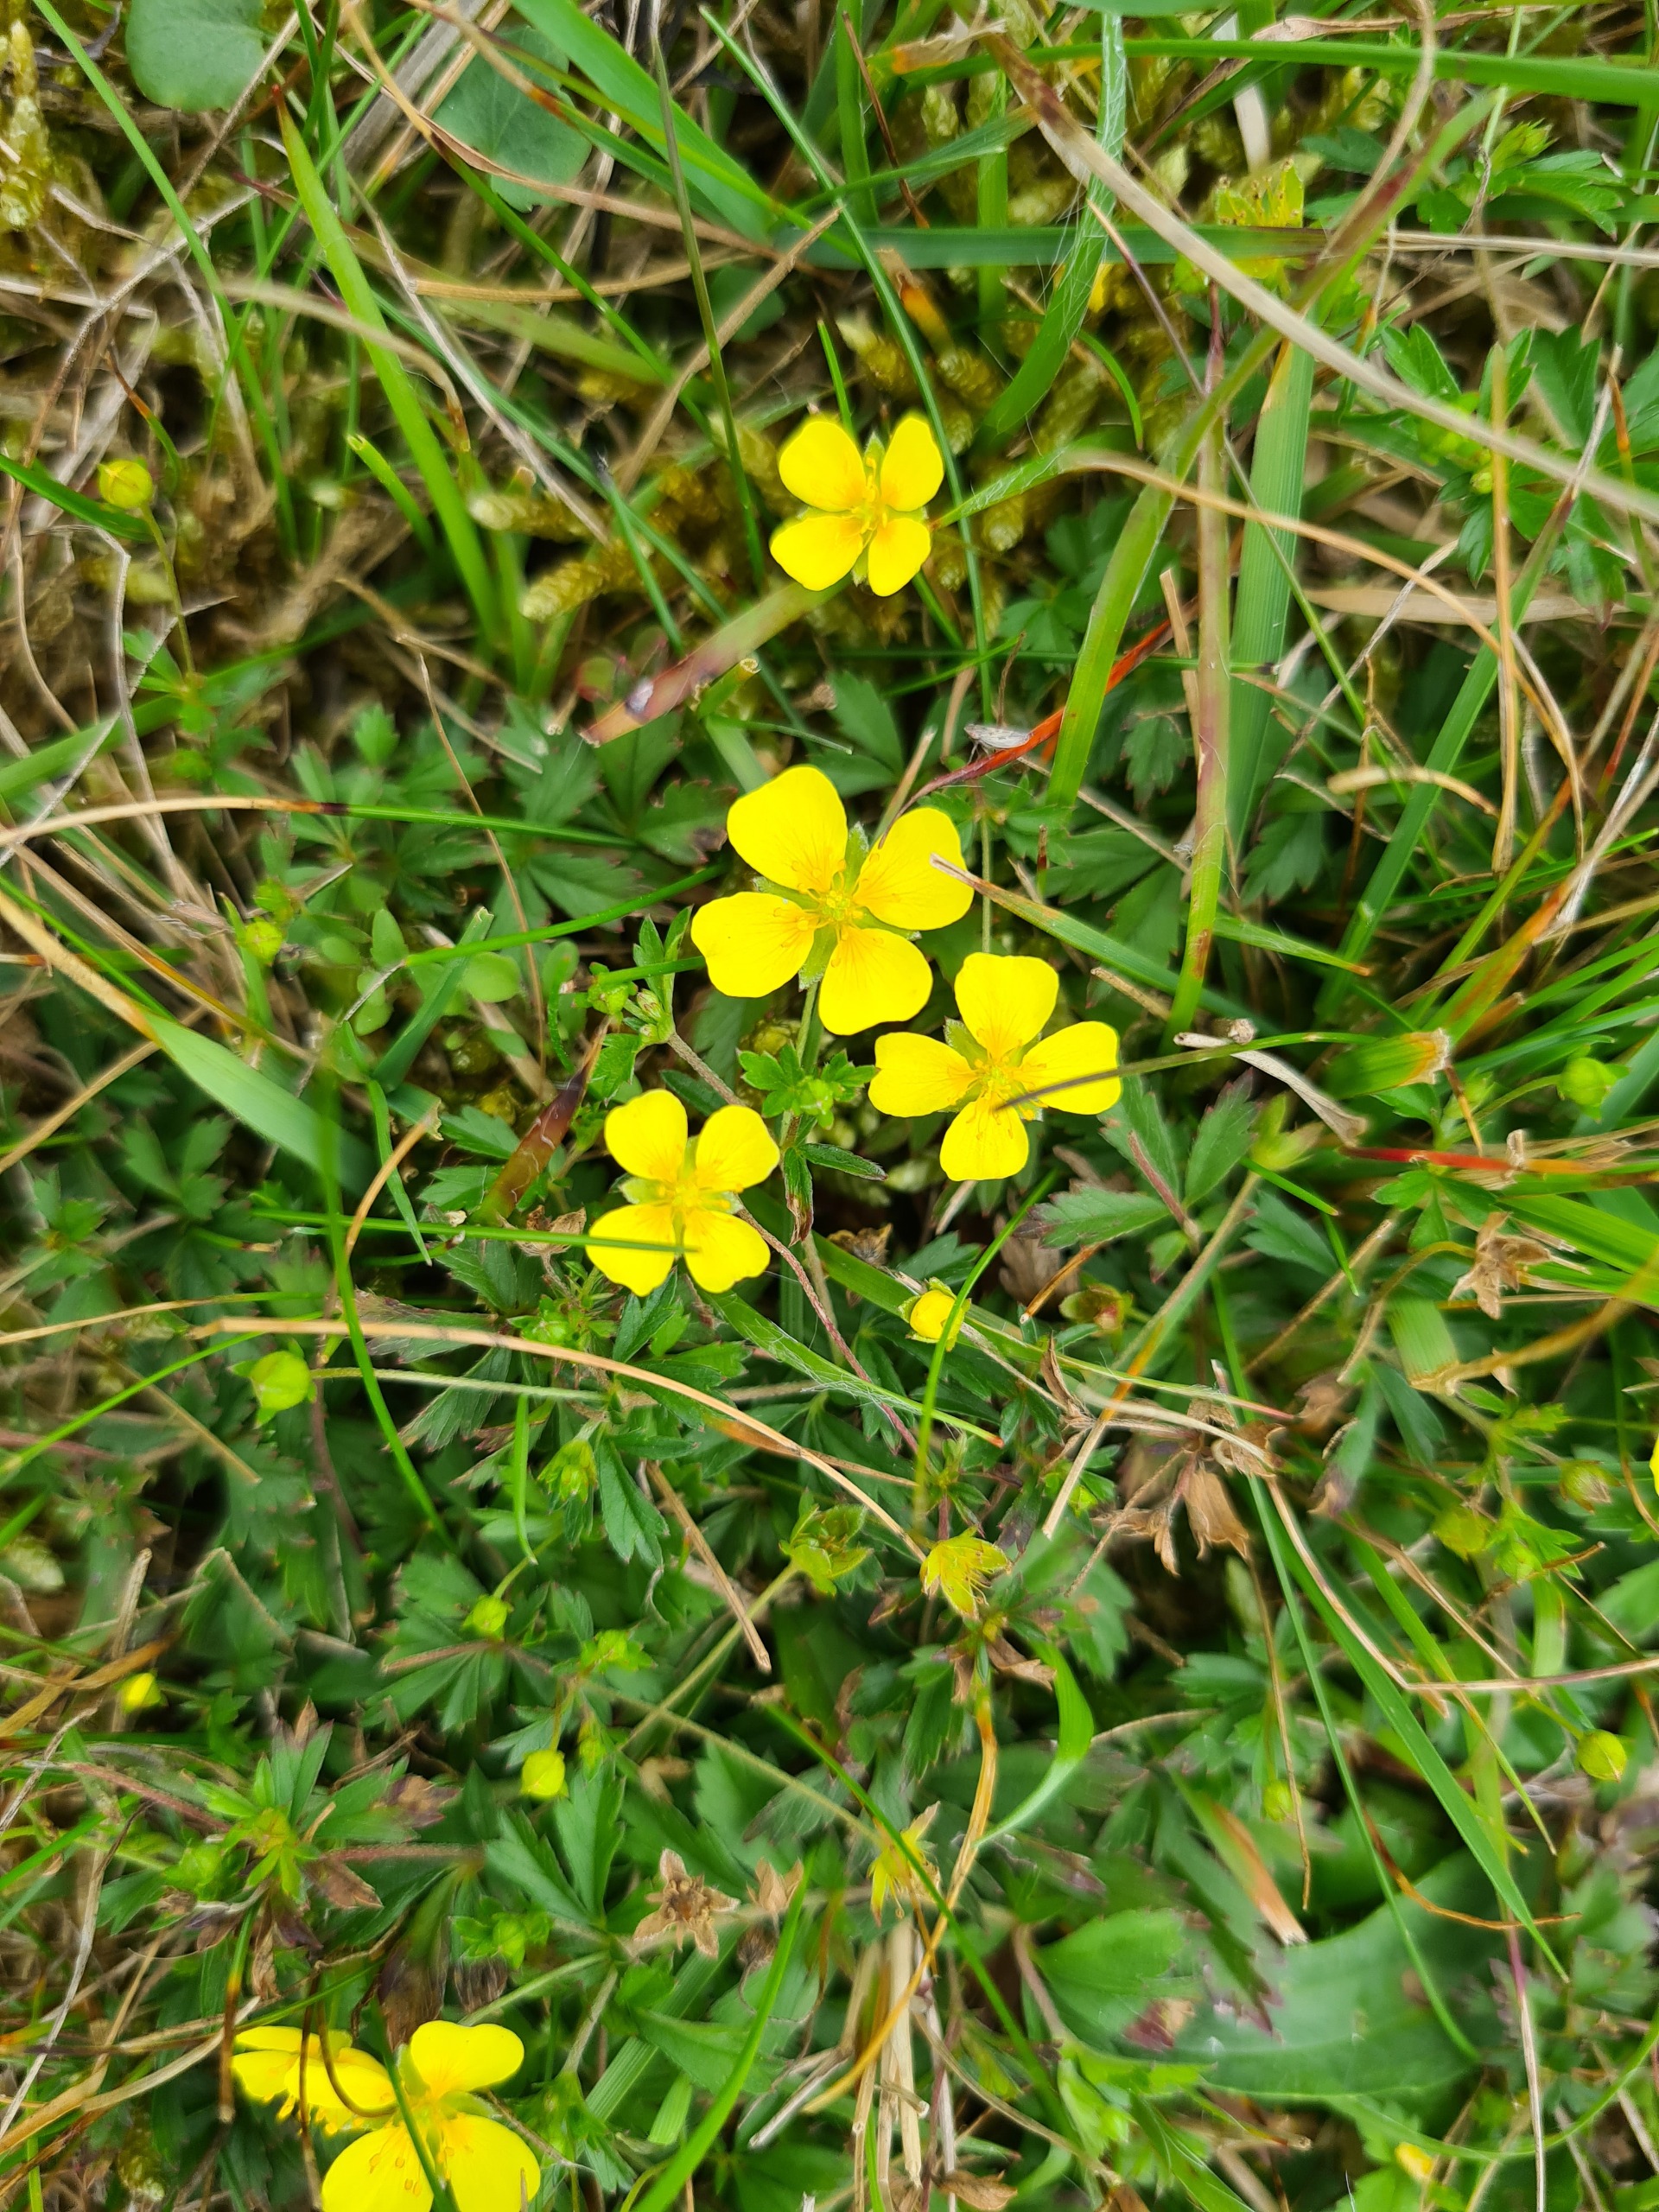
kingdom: Plantae
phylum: Tracheophyta
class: Magnoliopsida
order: Rosales
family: Rosaceae
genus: Potentilla
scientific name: Potentilla erecta
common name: Tormentil
